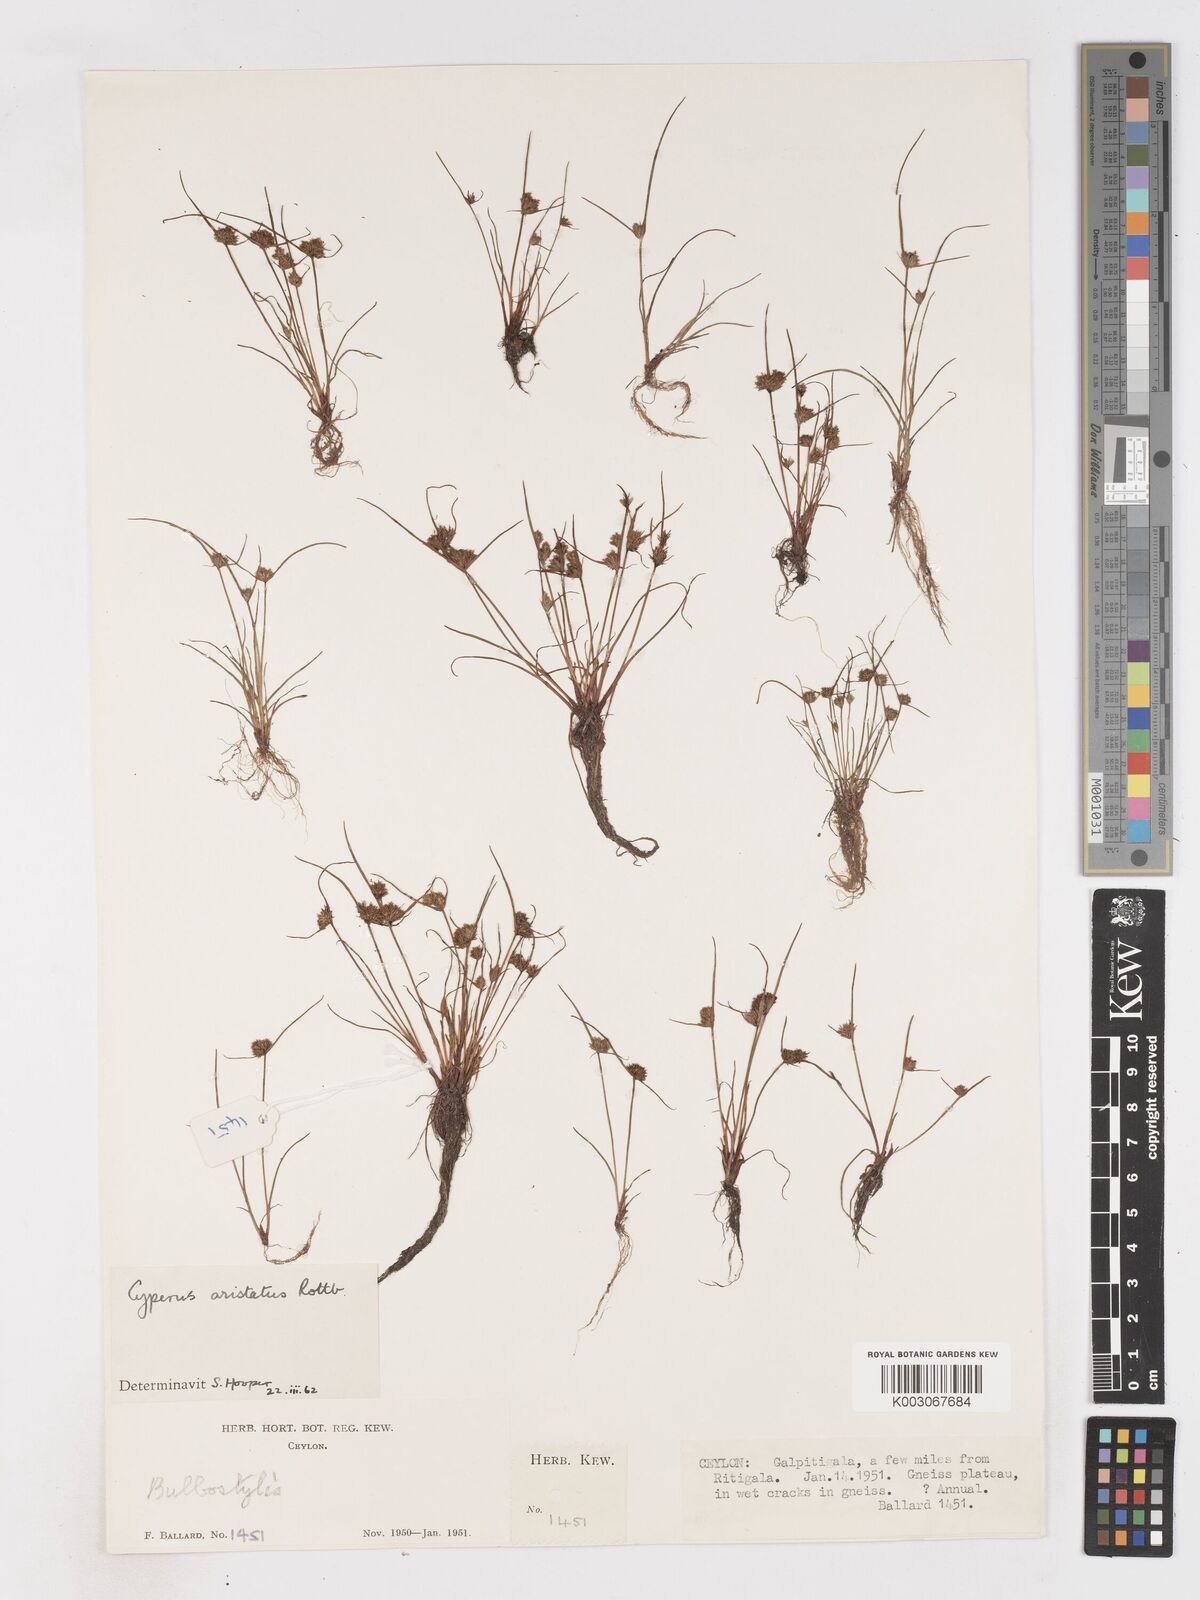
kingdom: Plantae
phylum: Tracheophyta
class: Liliopsida
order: Poales
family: Cyperaceae
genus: Cyperus
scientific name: Cyperus squarrosus
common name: Awned cyperus
